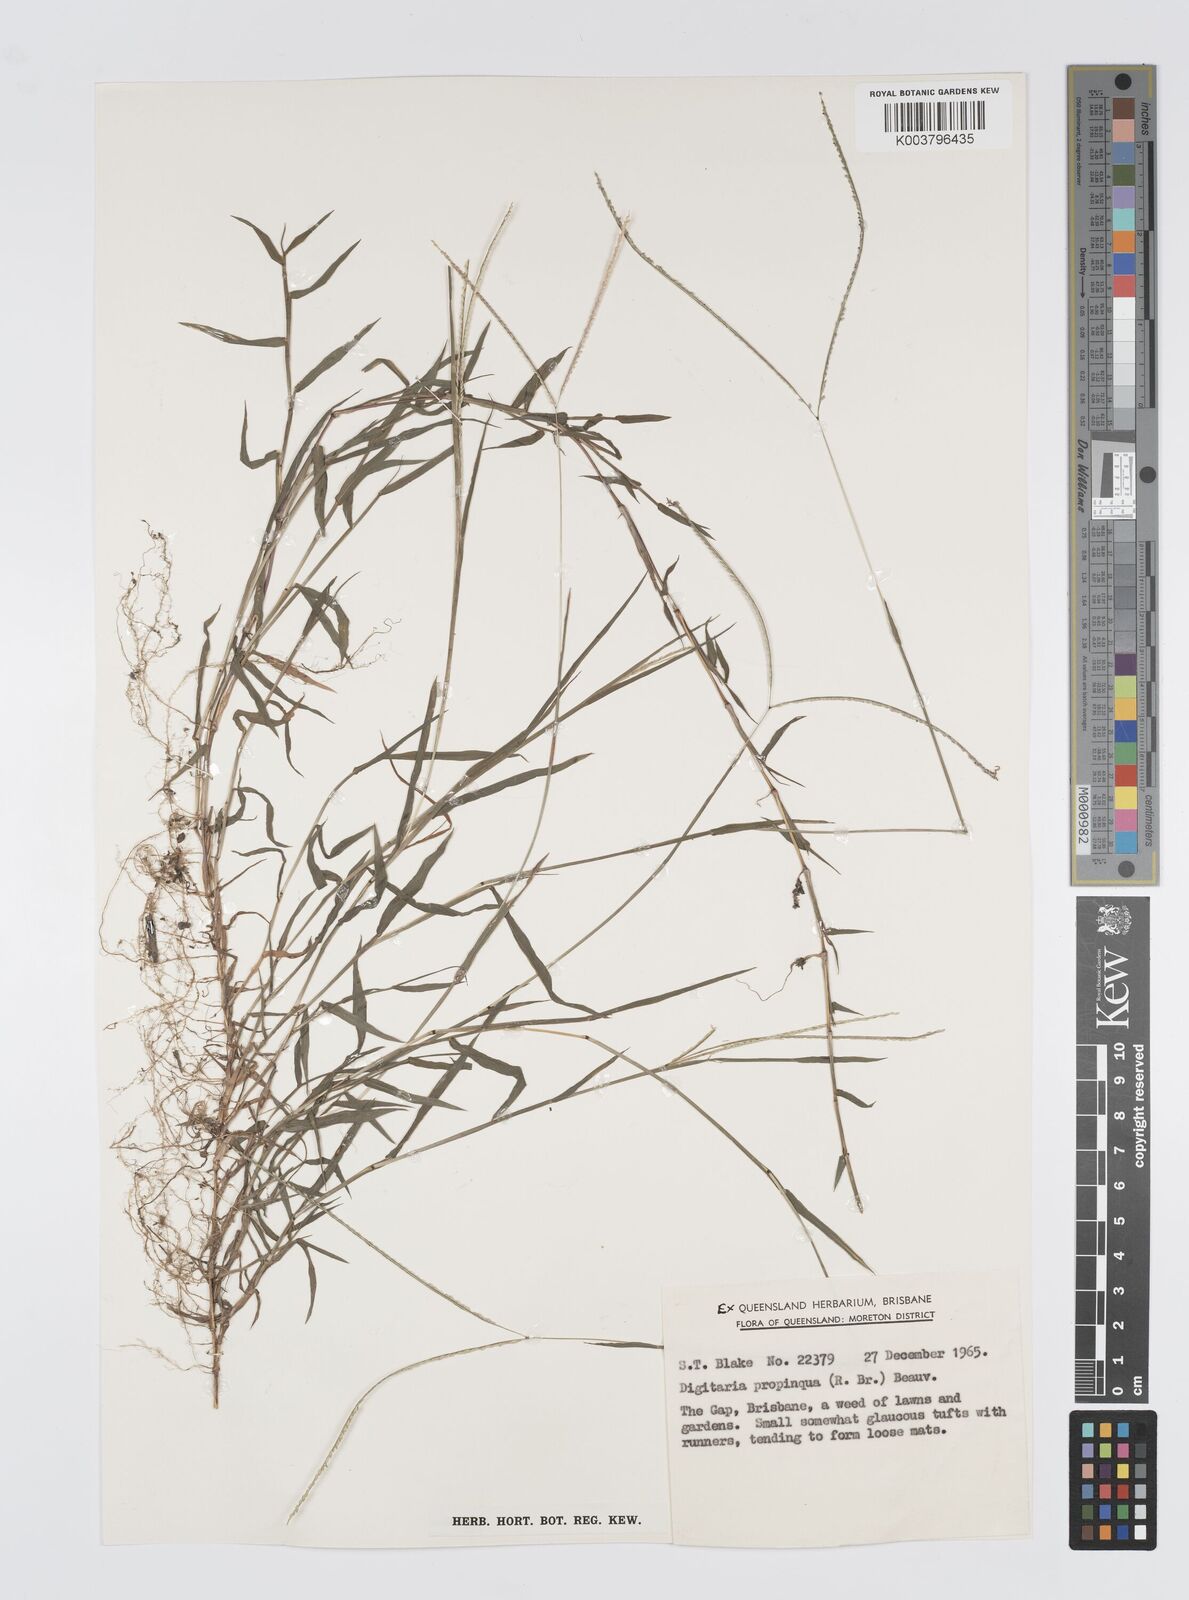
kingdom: Plantae
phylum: Tracheophyta
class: Liliopsida
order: Poales
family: Poaceae
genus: Digitaria
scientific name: Digitaria longiflora
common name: Wire crabgrass
